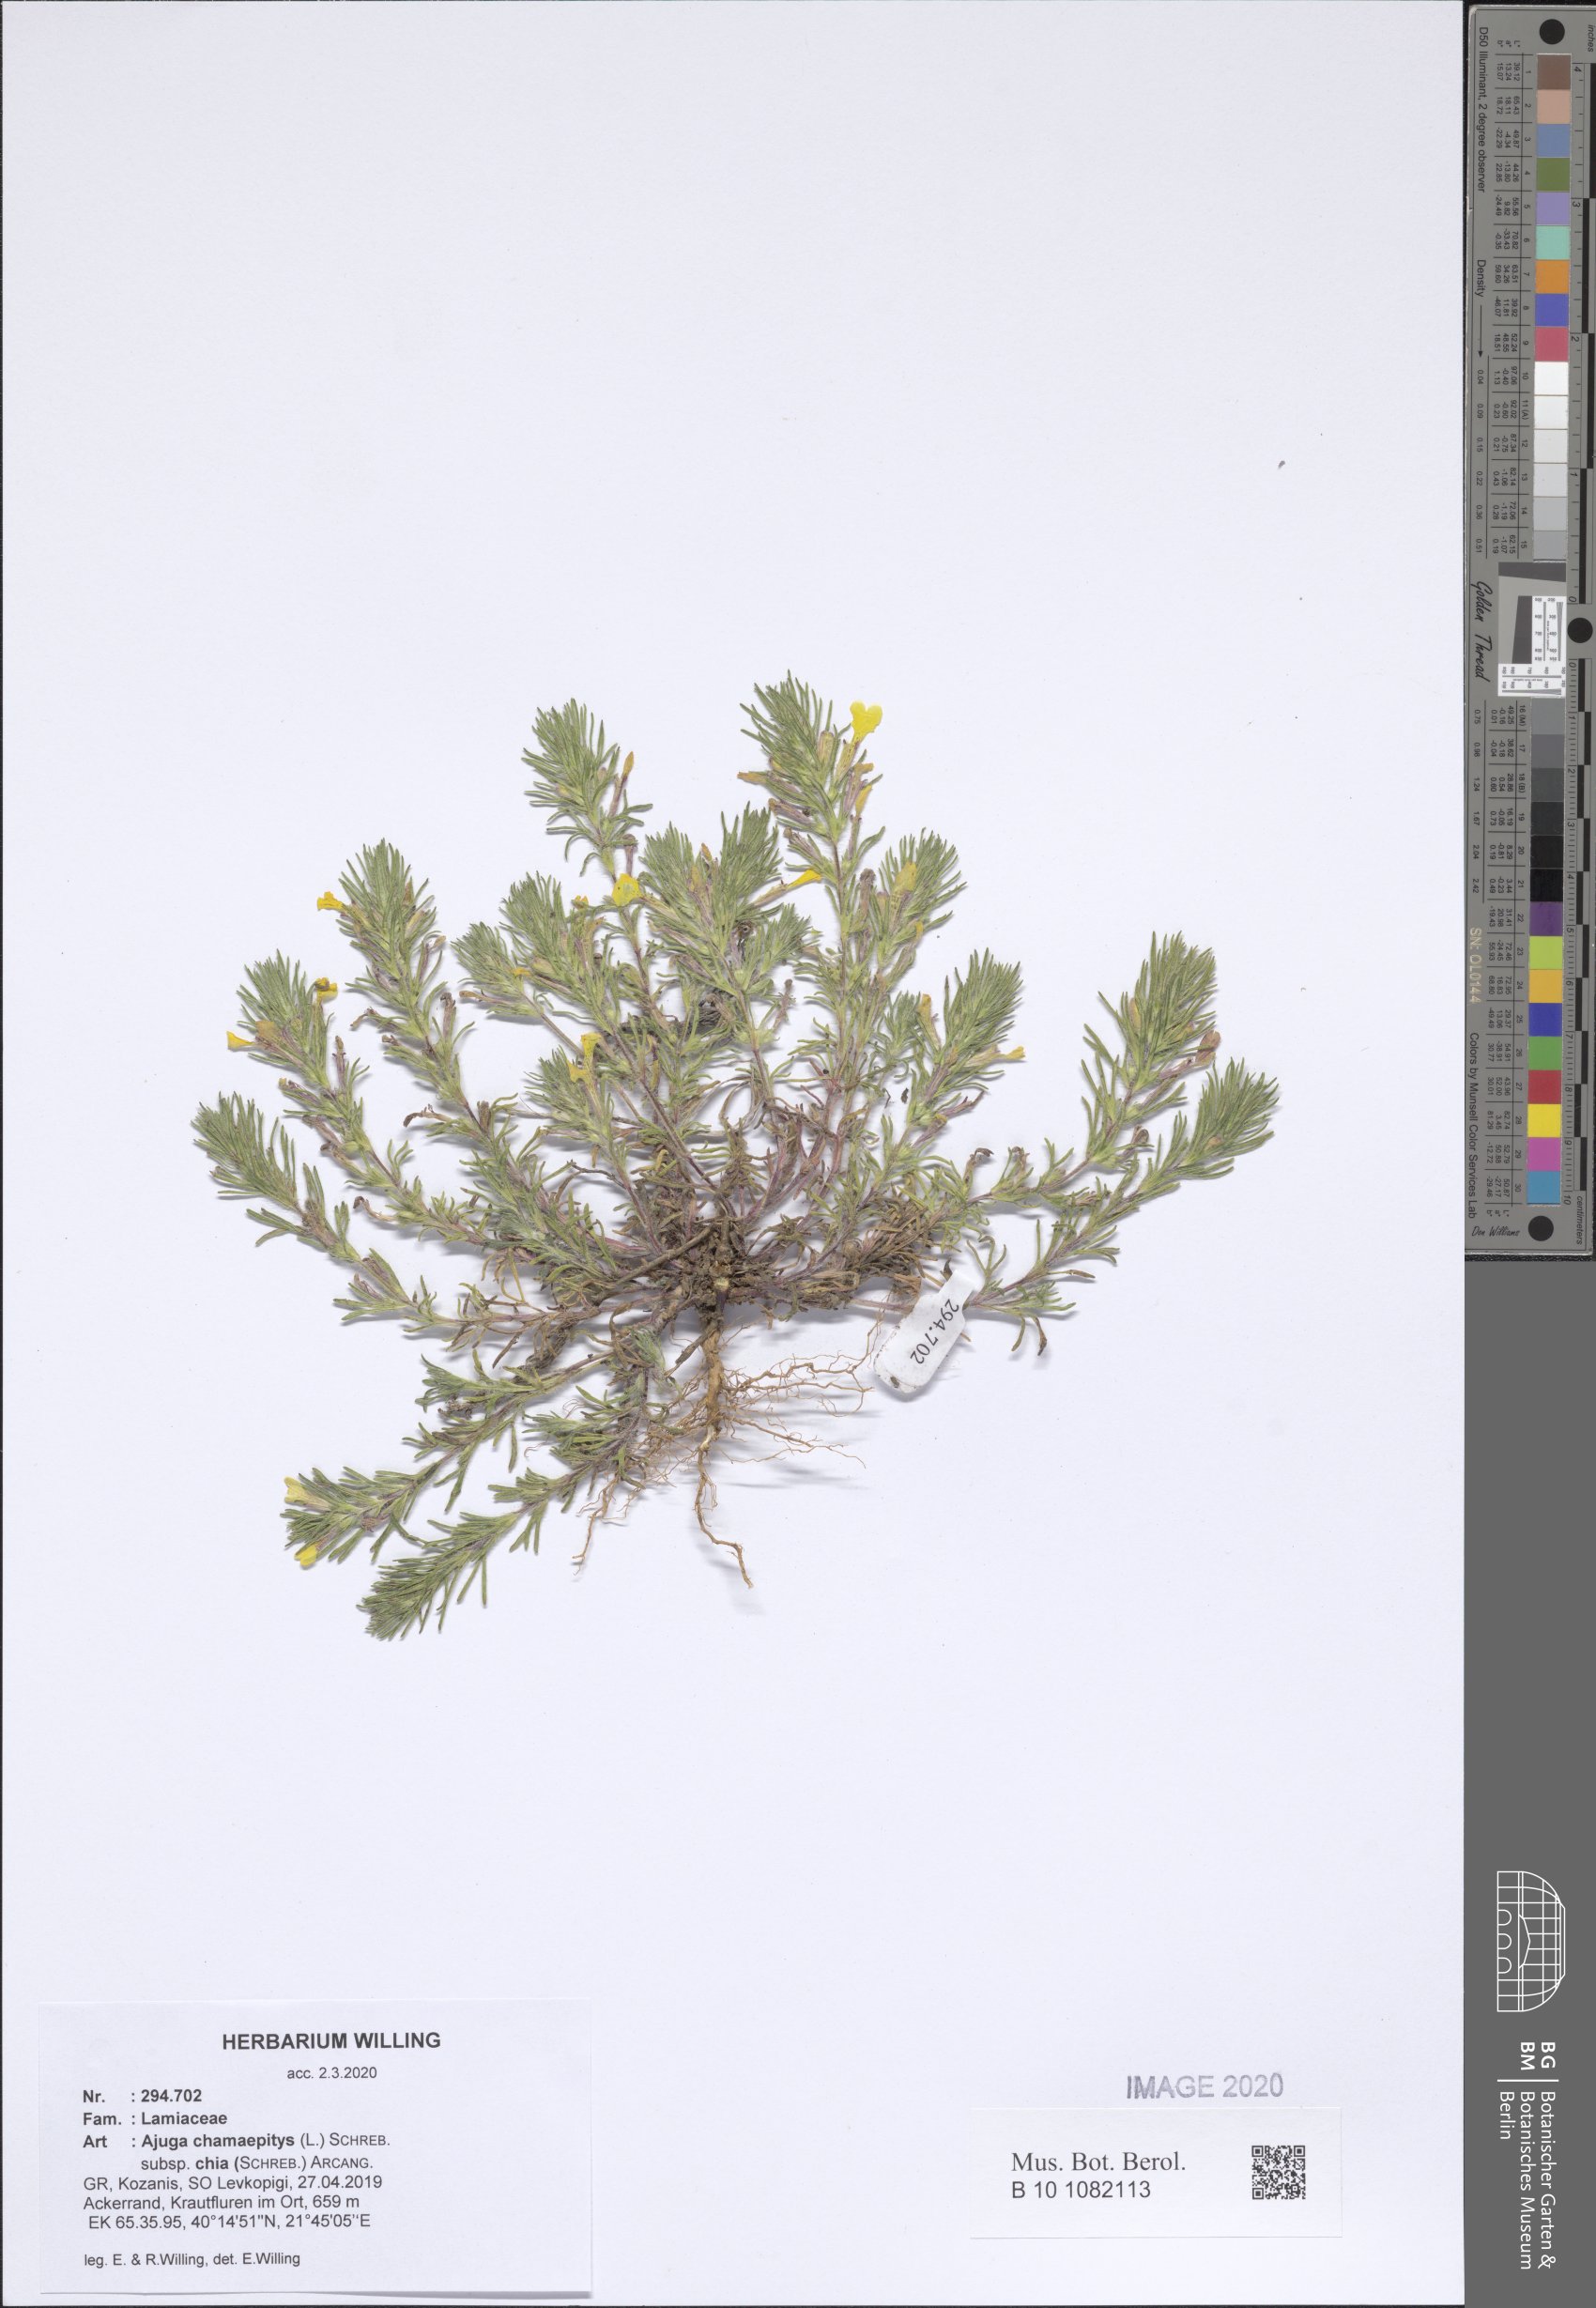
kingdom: Plantae
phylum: Tracheophyta
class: Magnoliopsida
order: Lamiales
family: Lamiaceae
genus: Ajuga
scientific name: Ajuga chamaepitys
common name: Ground-pine
